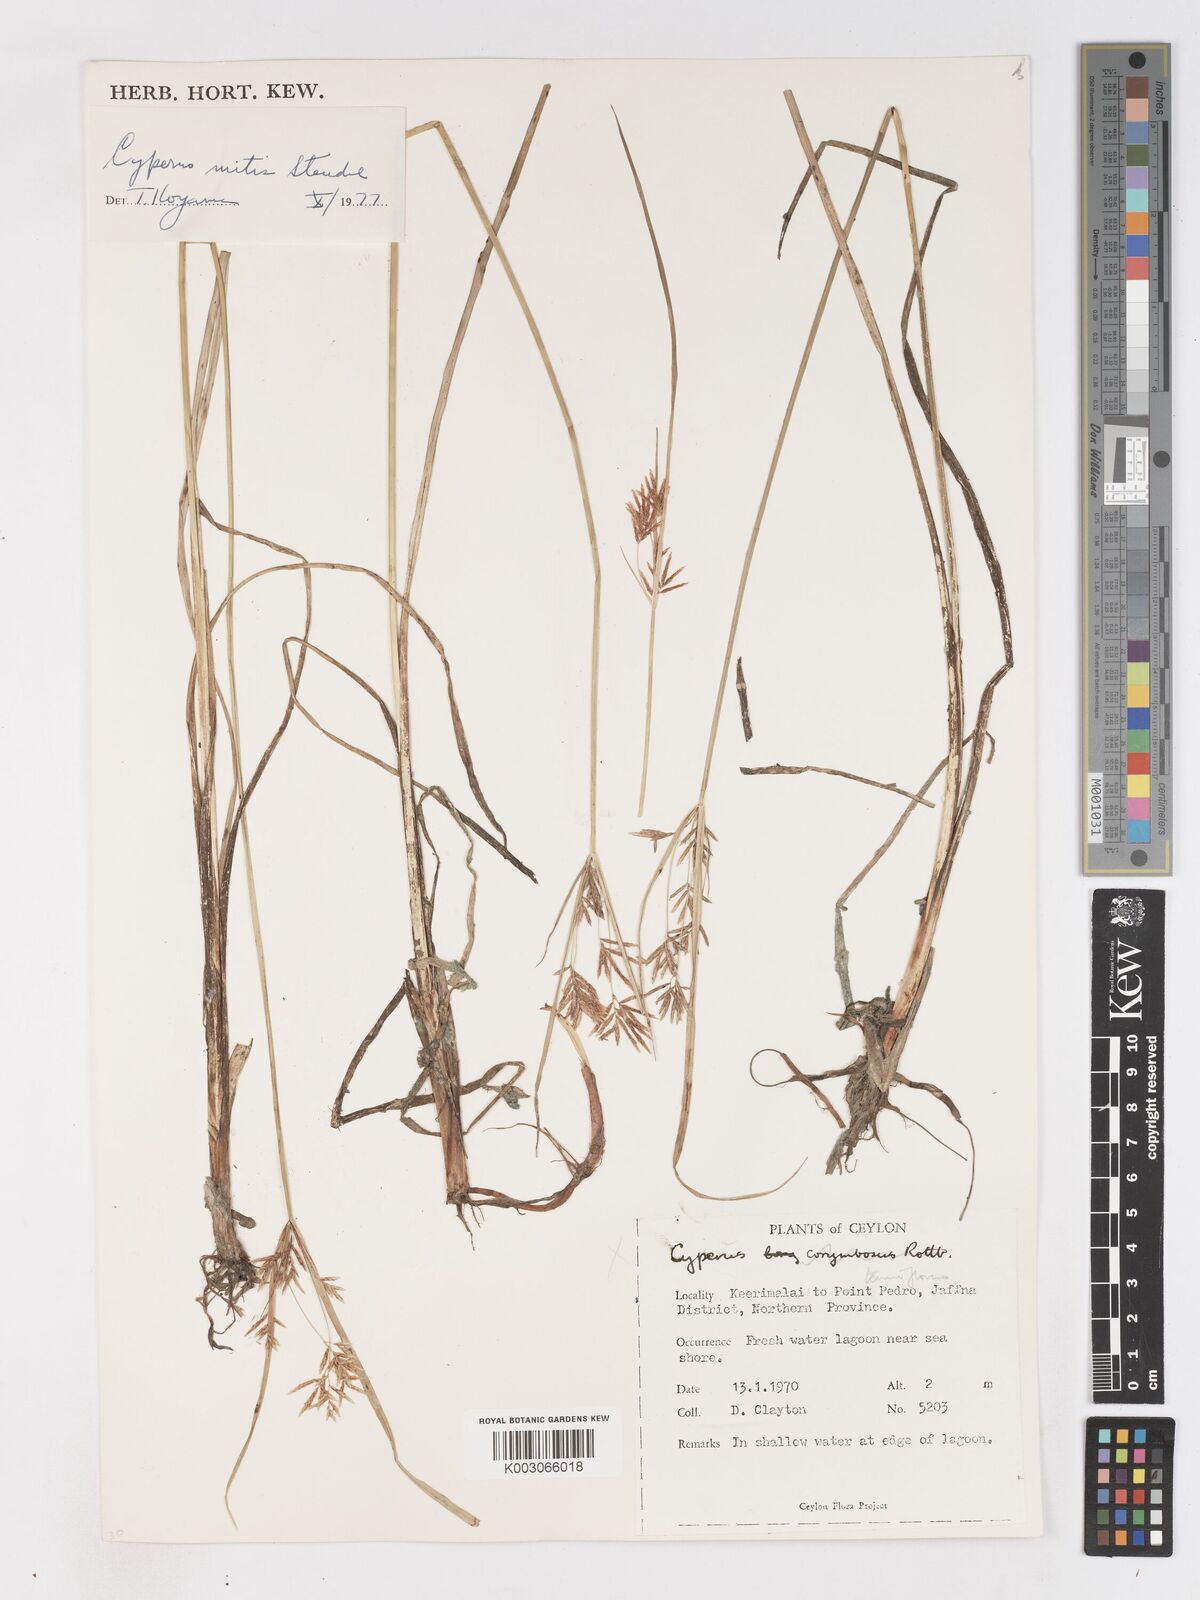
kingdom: Plantae
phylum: Tracheophyta
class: Liliopsida
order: Poales
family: Cyperaceae
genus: Cyperus
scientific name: Cyperus mitis
